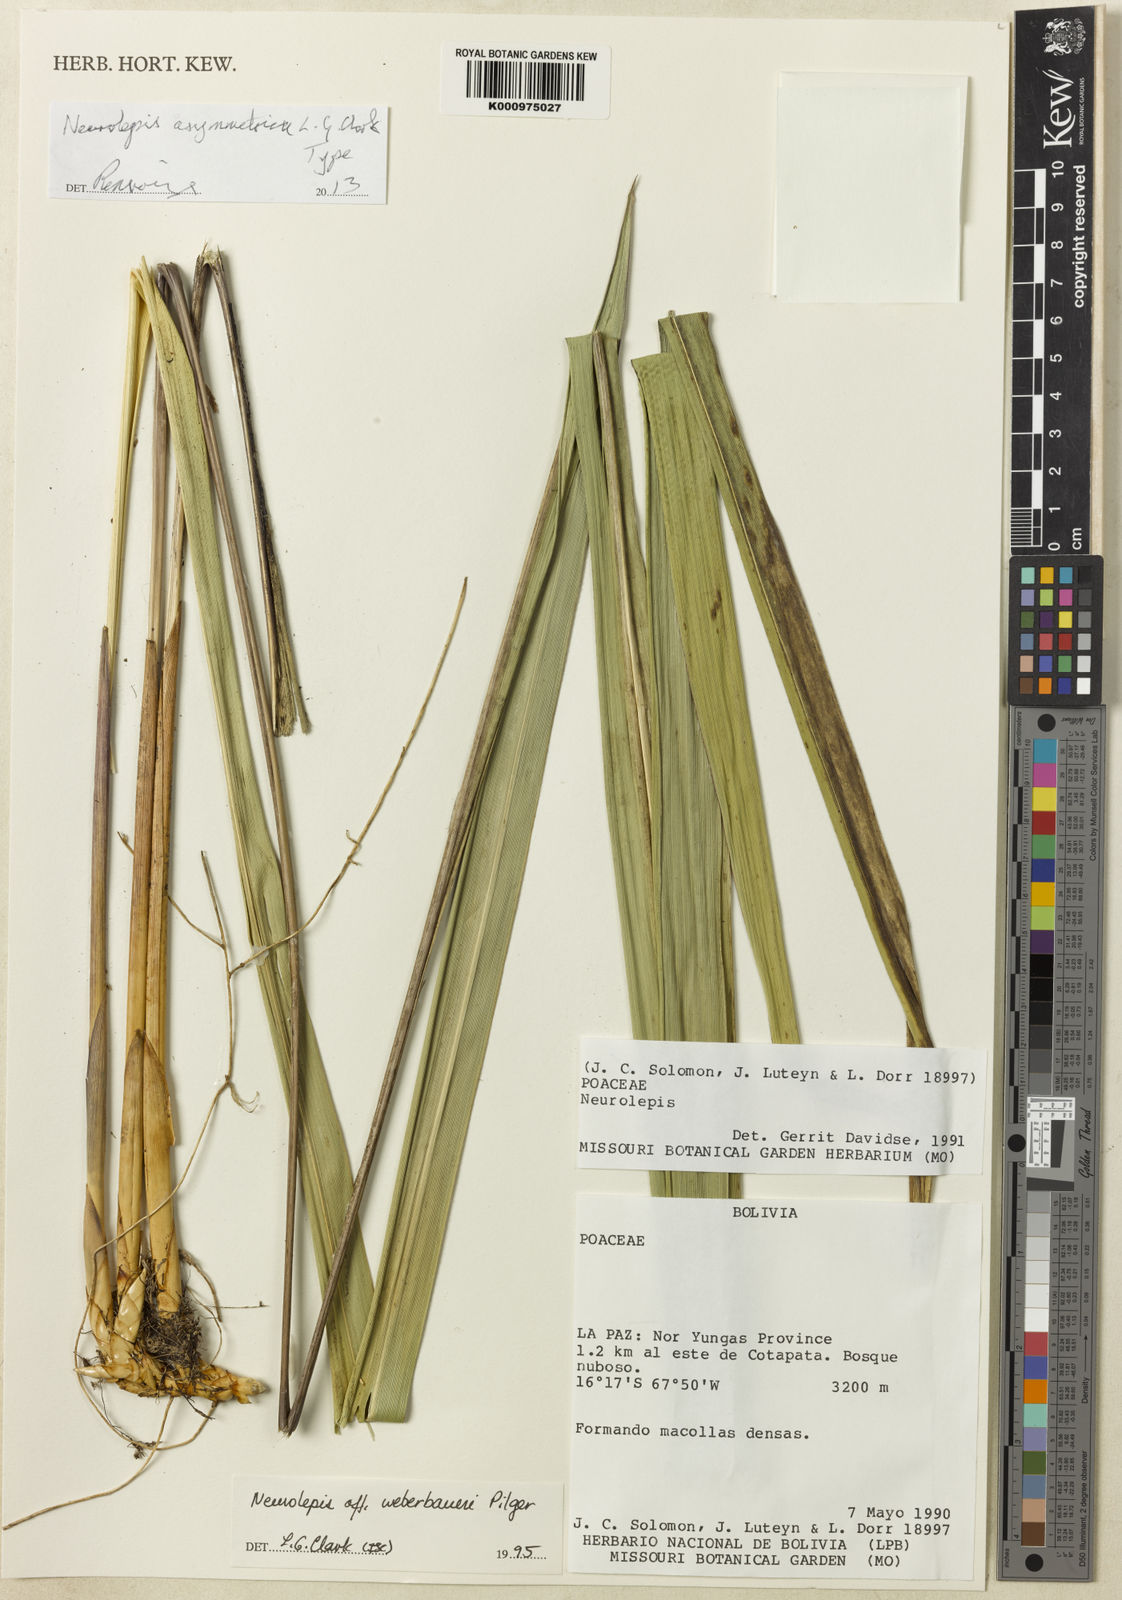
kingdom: Plantae
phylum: Tracheophyta
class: Liliopsida
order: Poales
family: Poaceae
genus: Chusquea
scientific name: Chusquea
